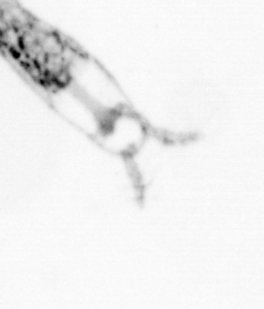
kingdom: Animalia
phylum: Arthropoda
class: Copepoda
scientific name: Copepoda
